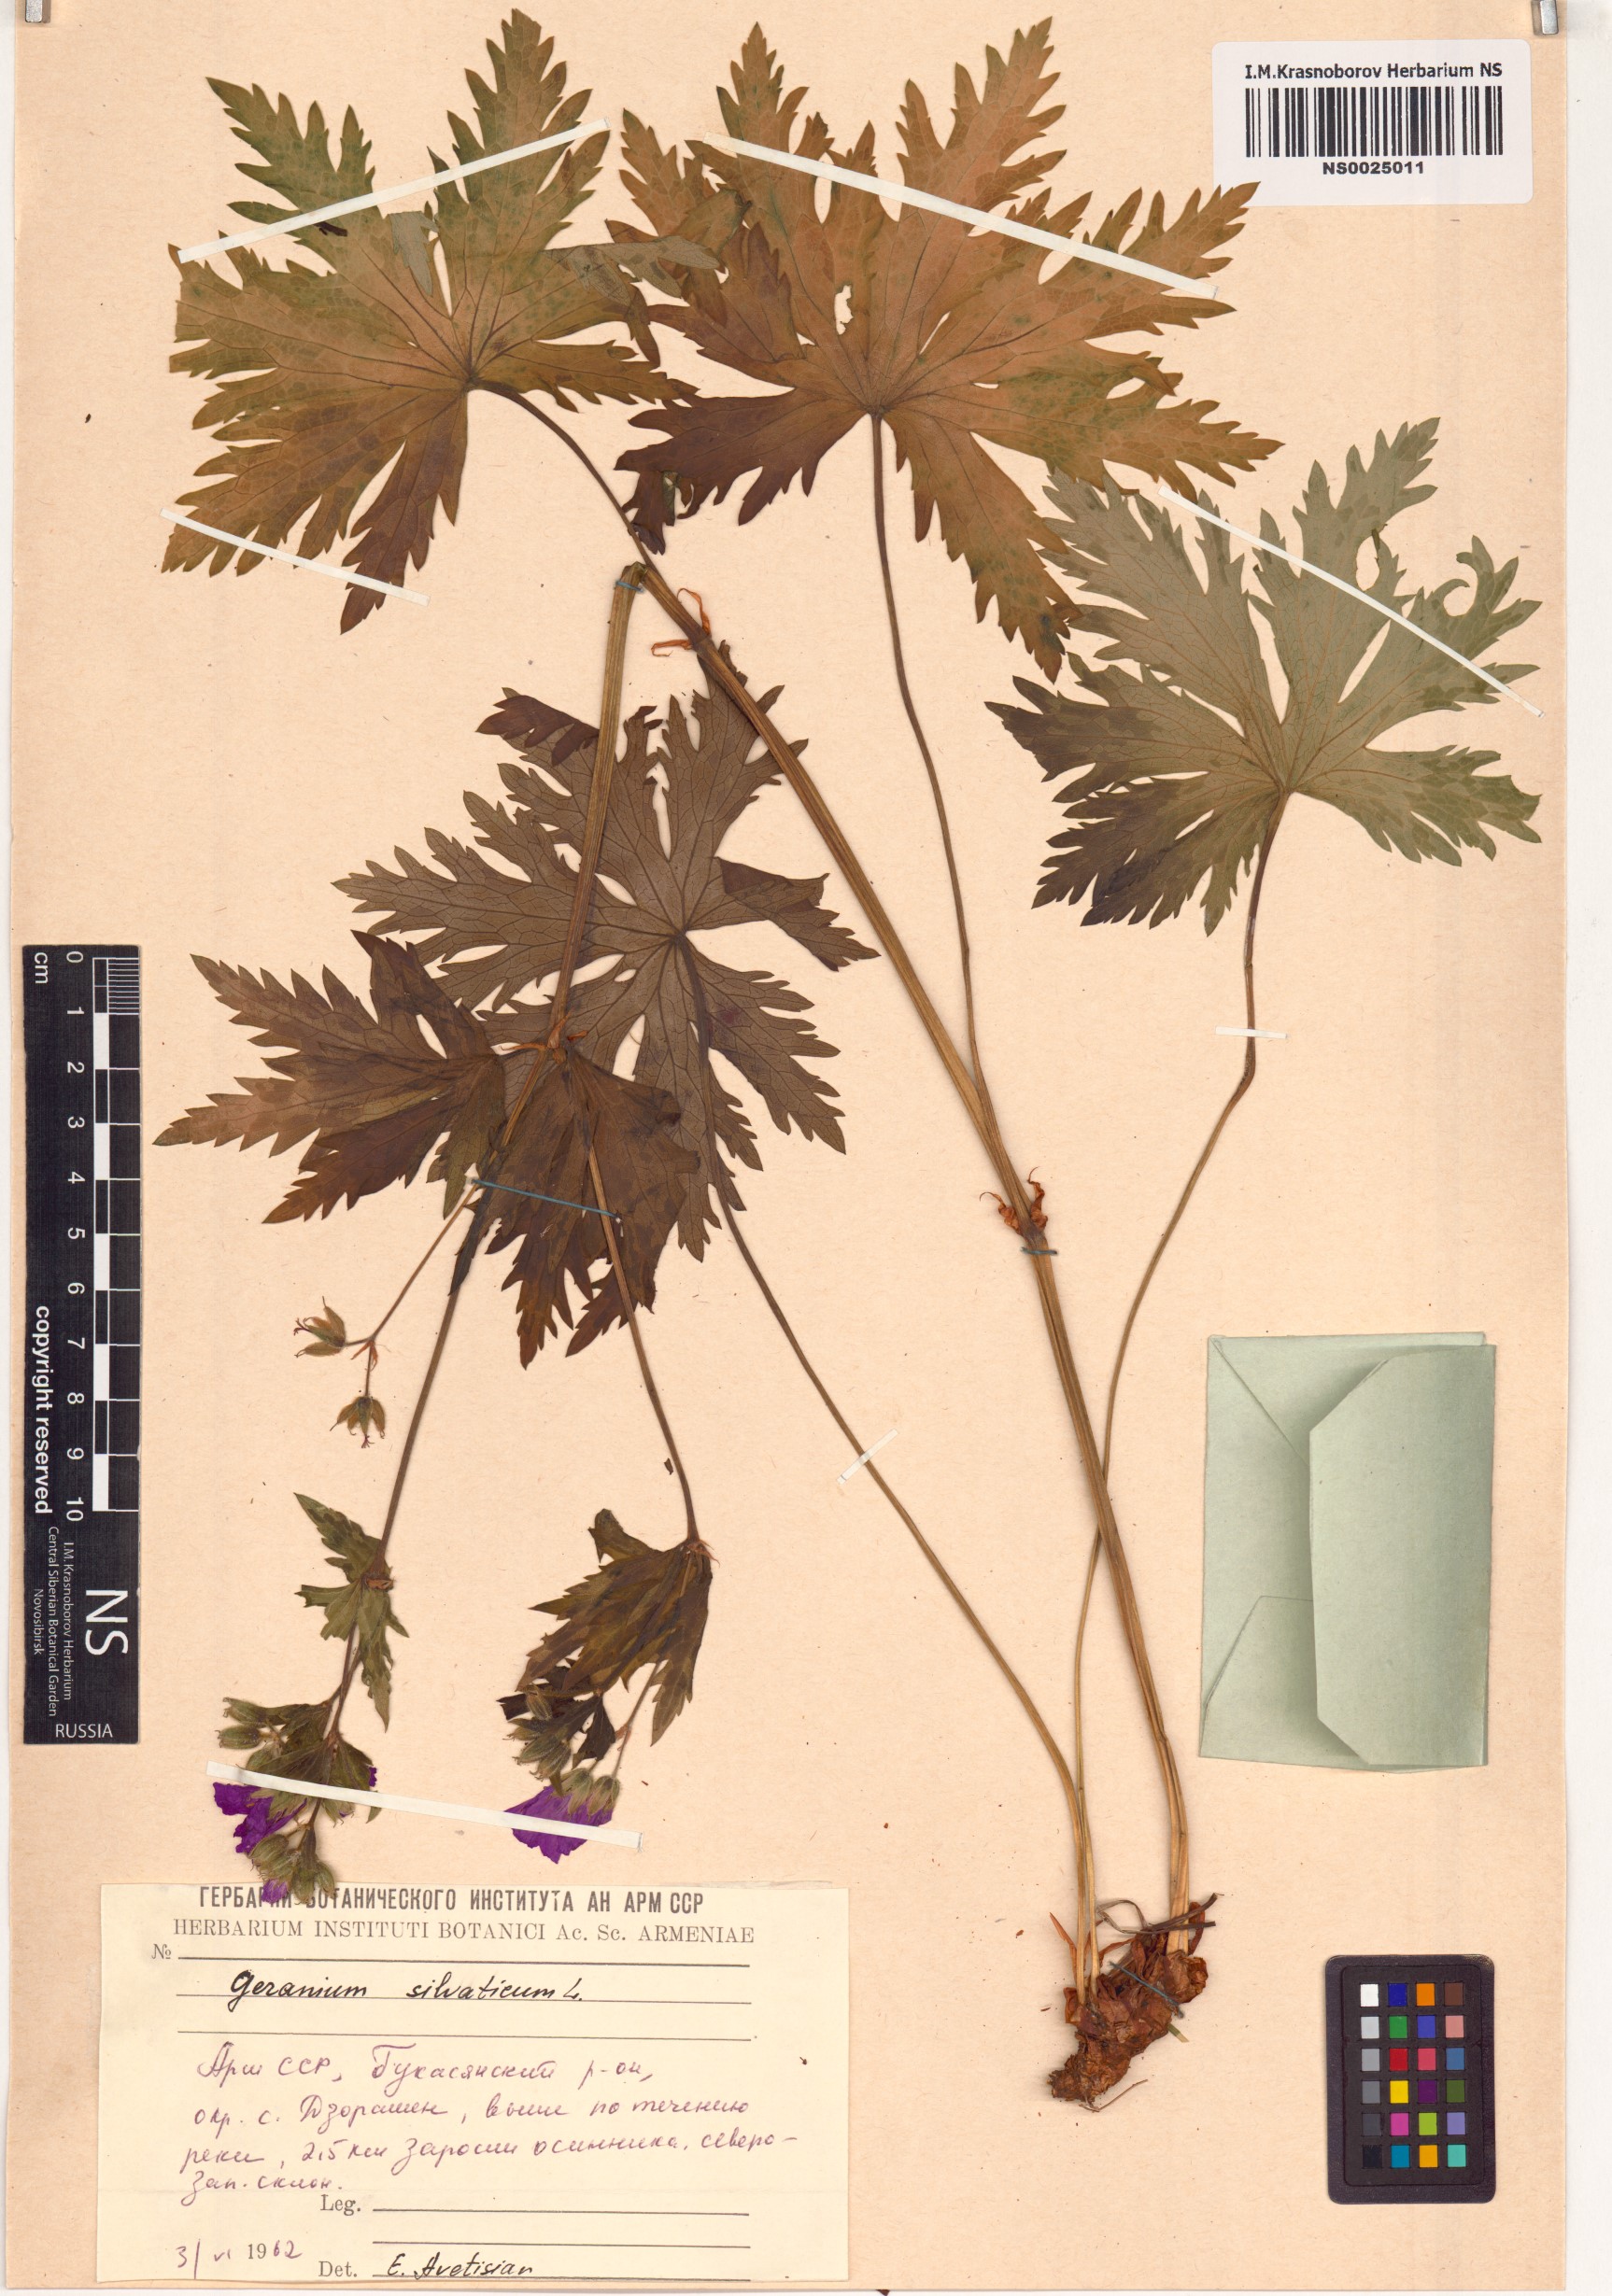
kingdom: Plantae
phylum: Tracheophyta
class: Magnoliopsida
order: Geraniales
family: Geraniaceae
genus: Geranium
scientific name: Geranium sylvaticum
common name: Wood crane's-bill
